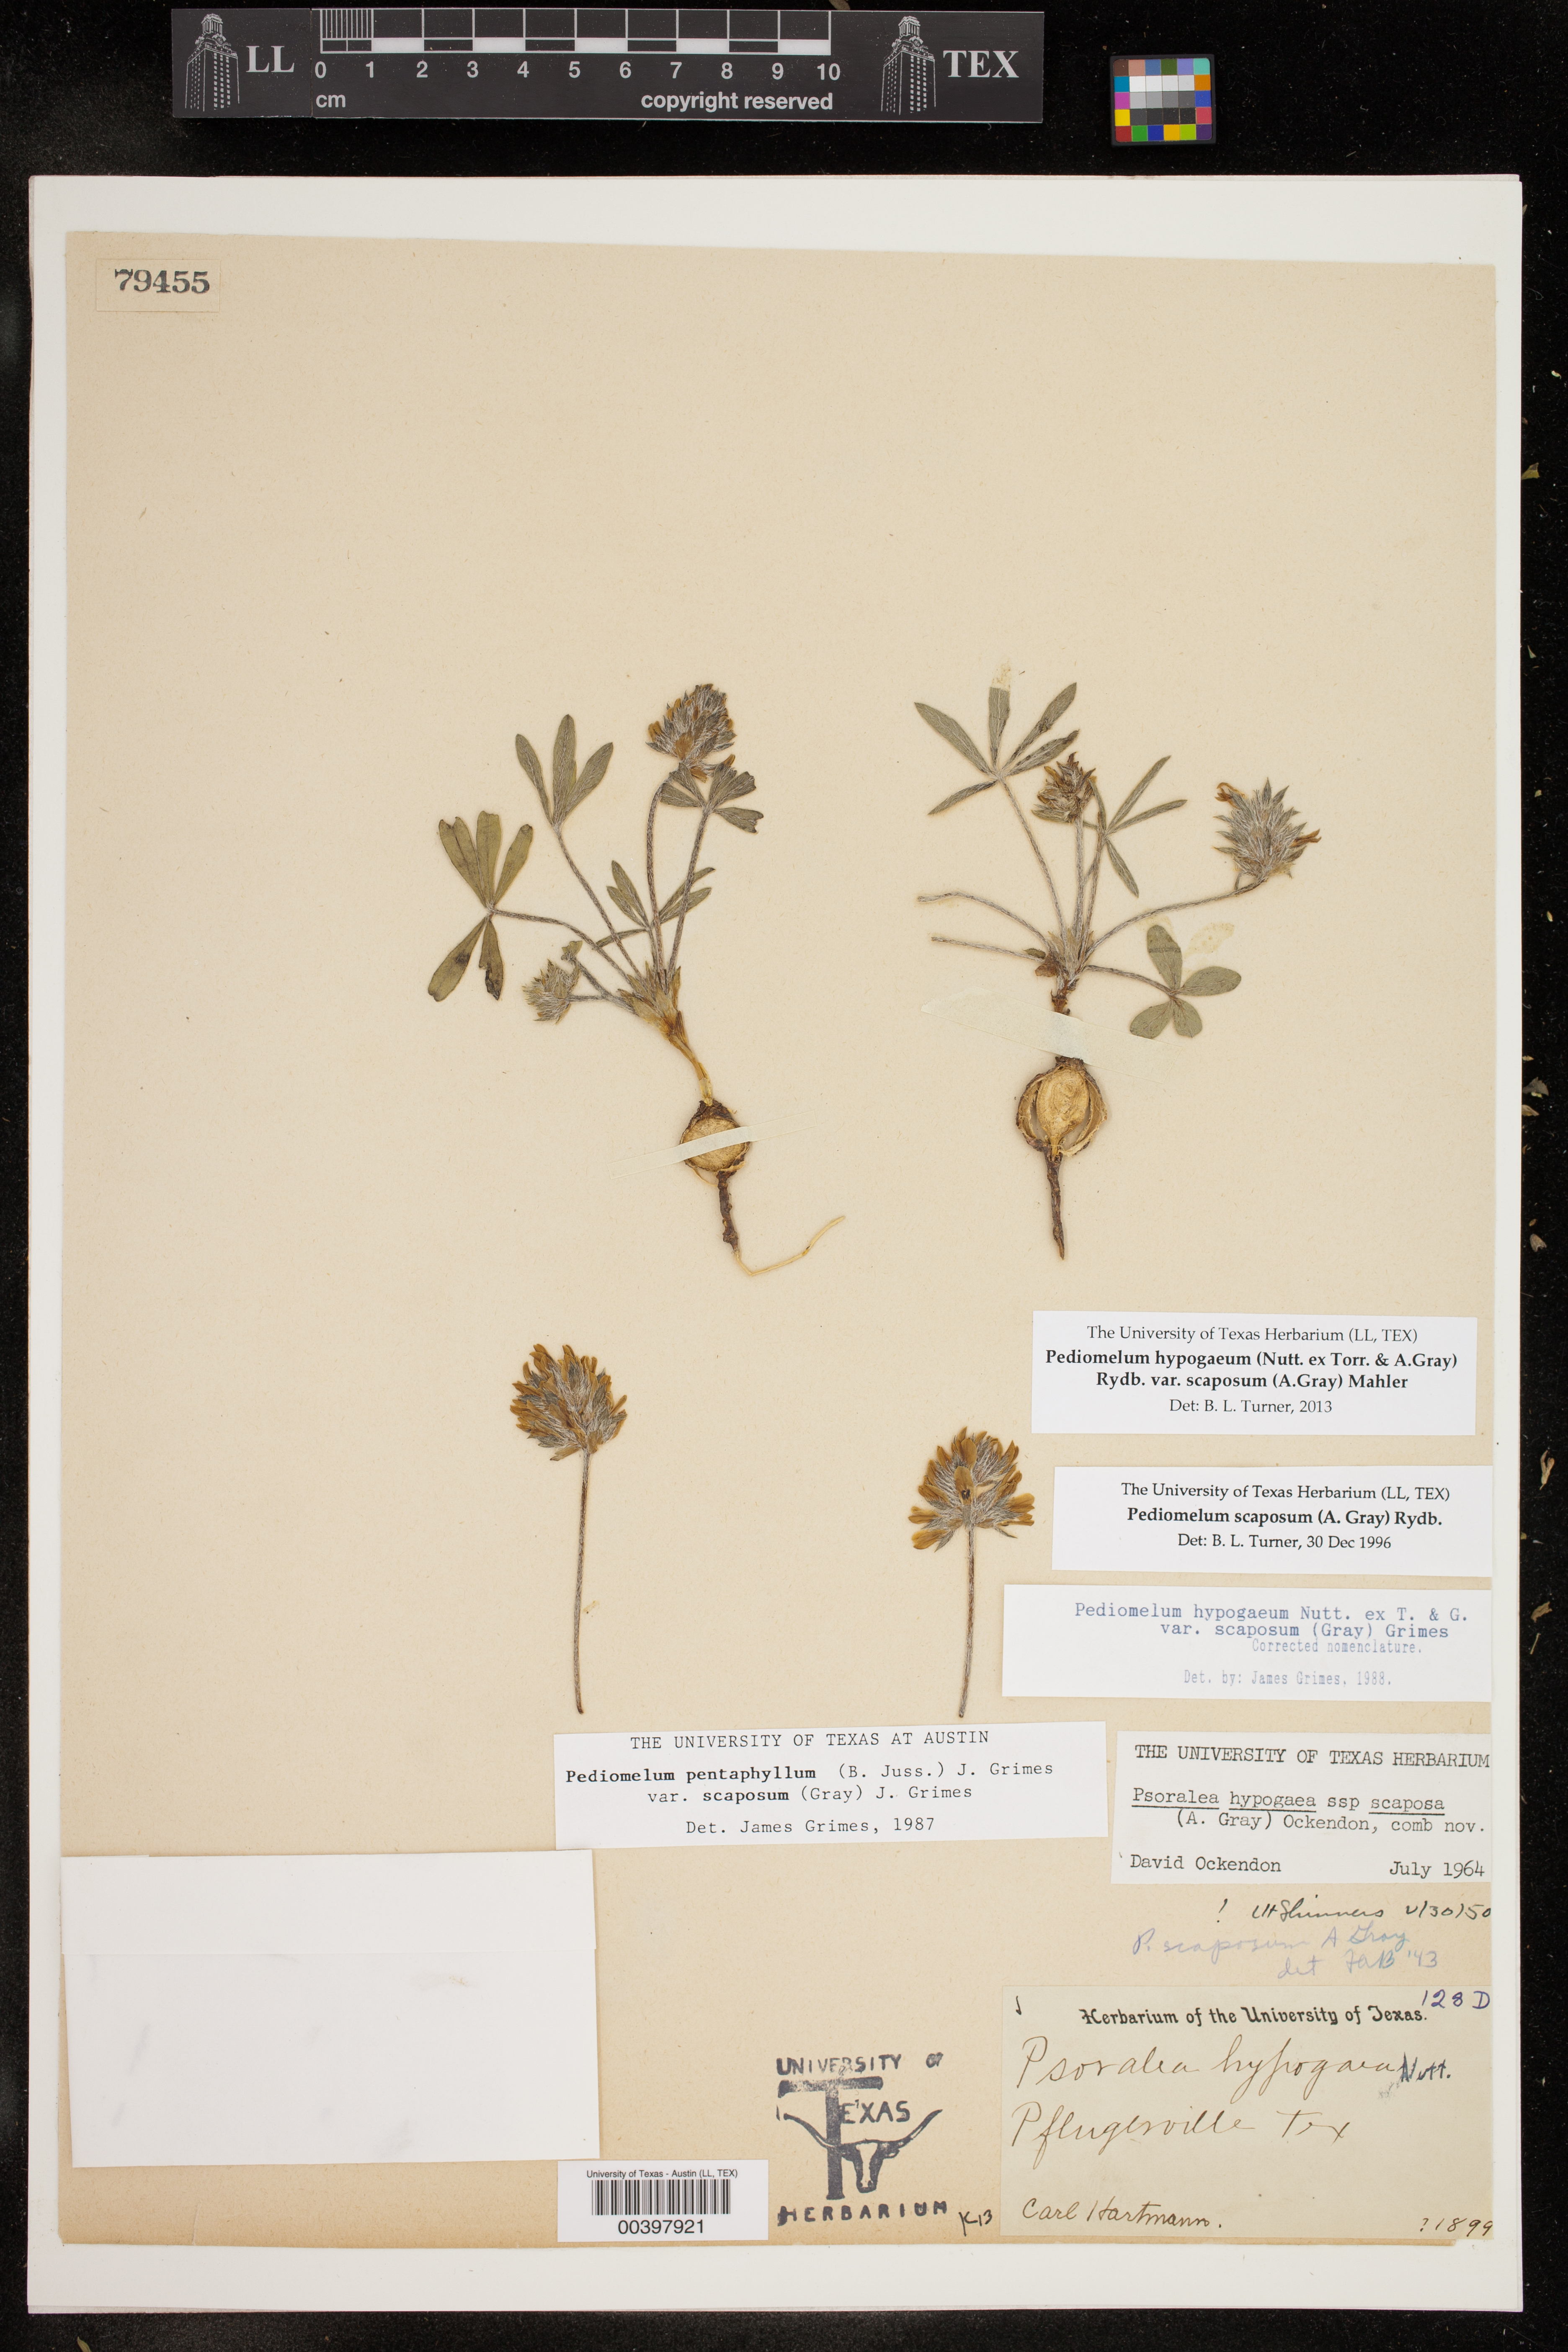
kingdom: Plantae
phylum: Tracheophyta
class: Magnoliopsida
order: Fabales
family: Fabaceae
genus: Pediomelum
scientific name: Pediomelum hypogaeum
